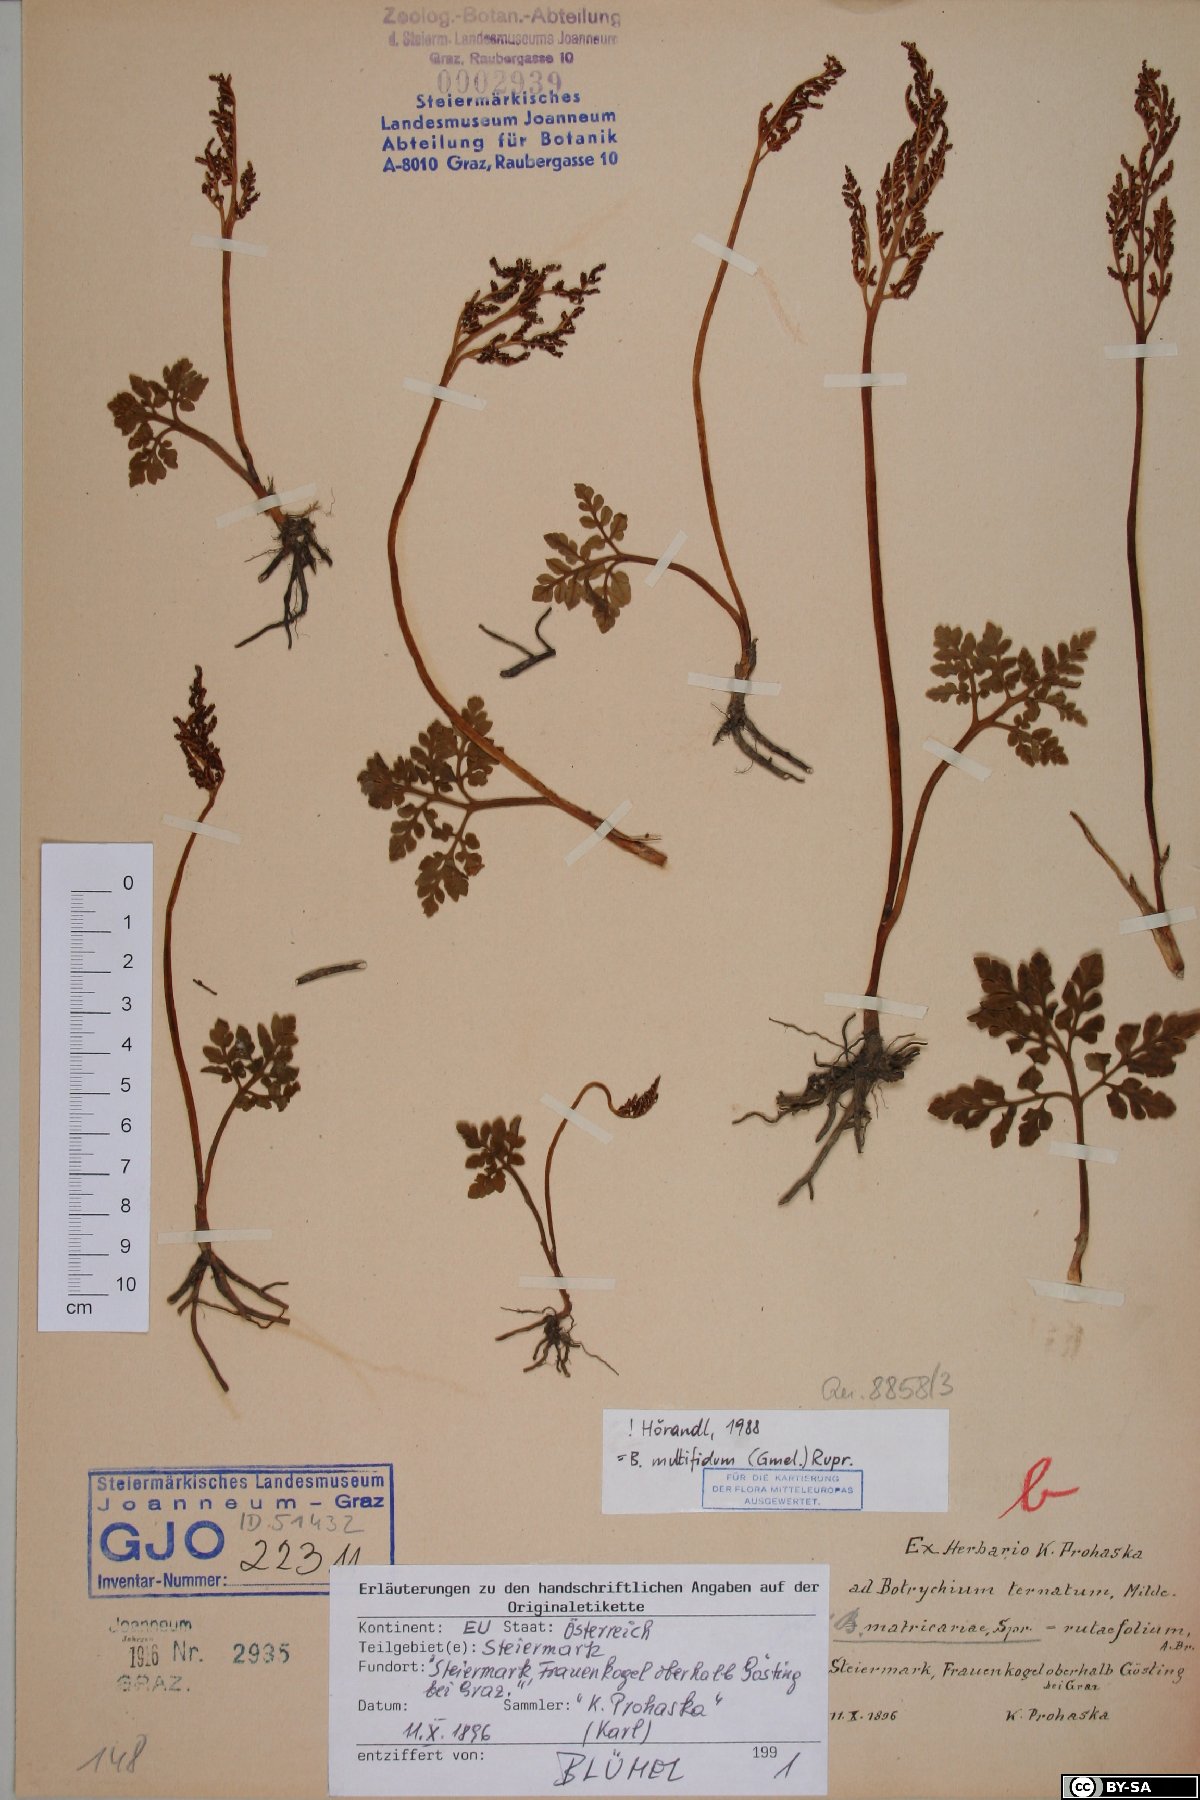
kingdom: Plantae
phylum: Tracheophyta
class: Polypodiopsida
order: Ophioglossales
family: Ophioglossaceae
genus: Sceptridium
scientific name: Sceptridium multifidum
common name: Leathery grape fern
